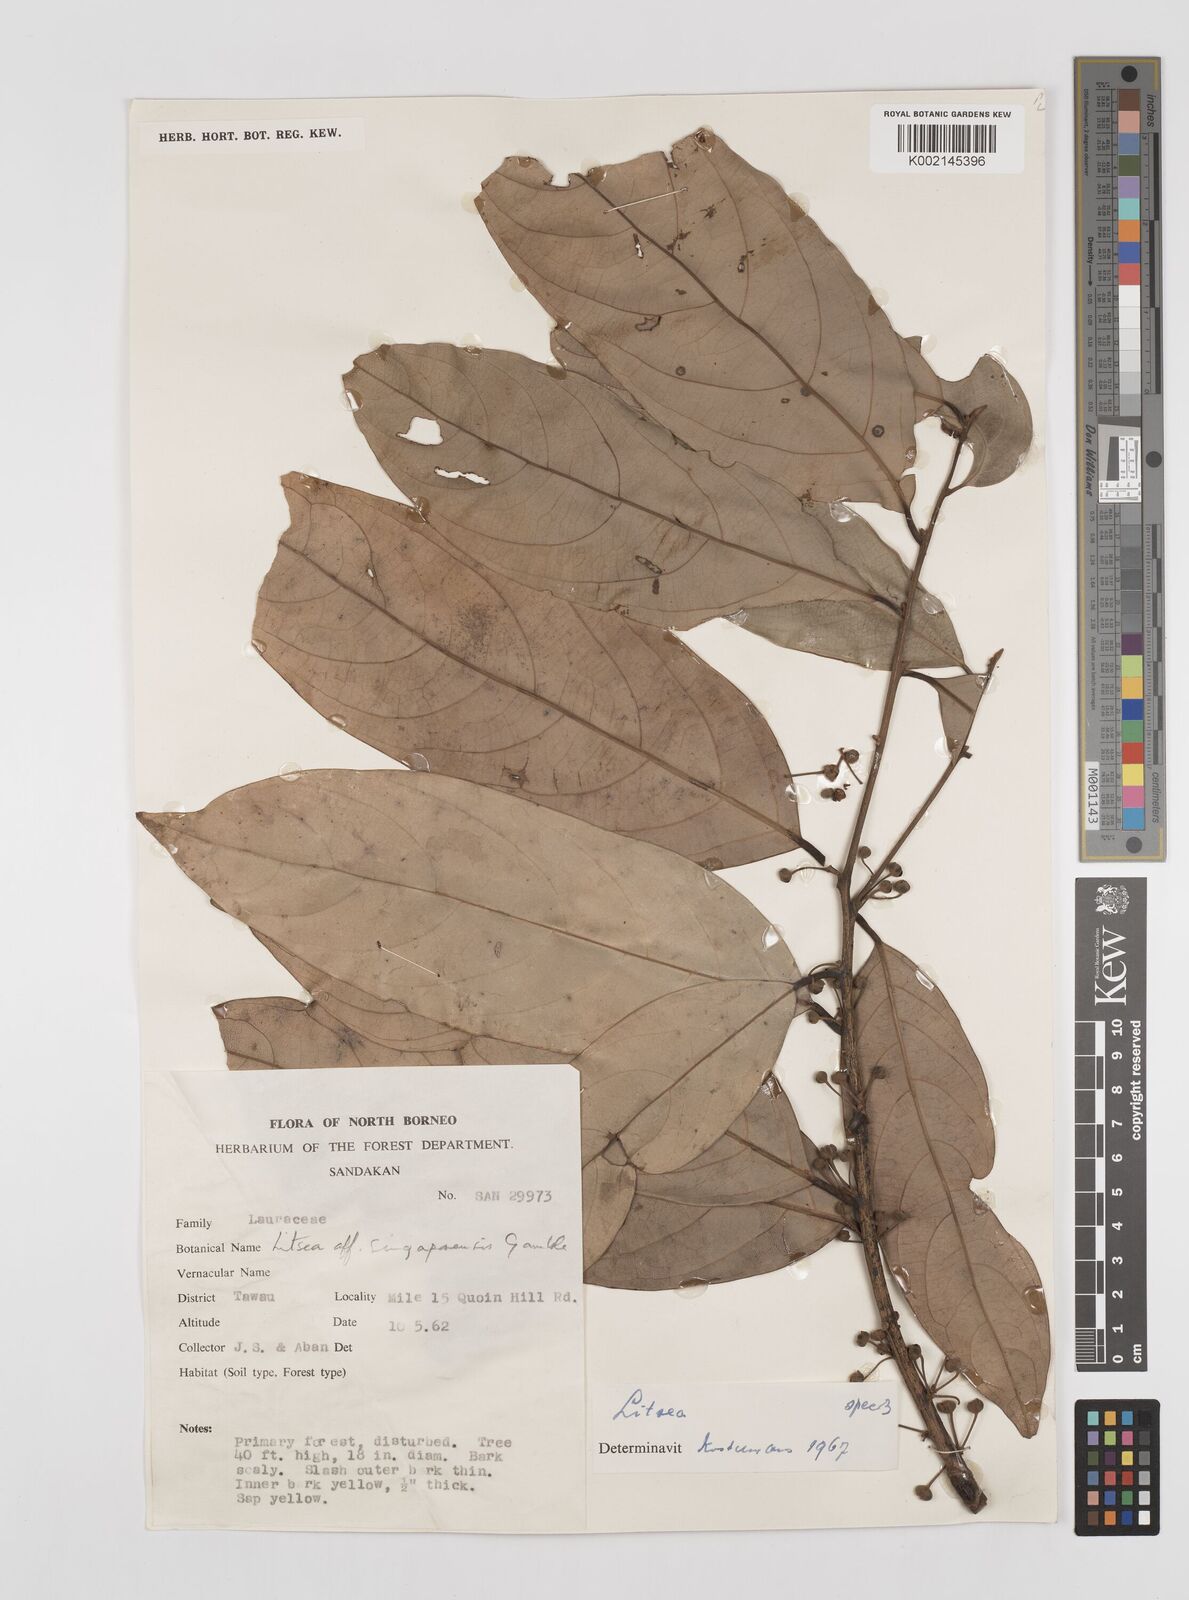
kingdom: Plantae
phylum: Tracheophyta
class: Magnoliopsida
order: Laurales
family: Lauraceae
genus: Litsea
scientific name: Litsea
